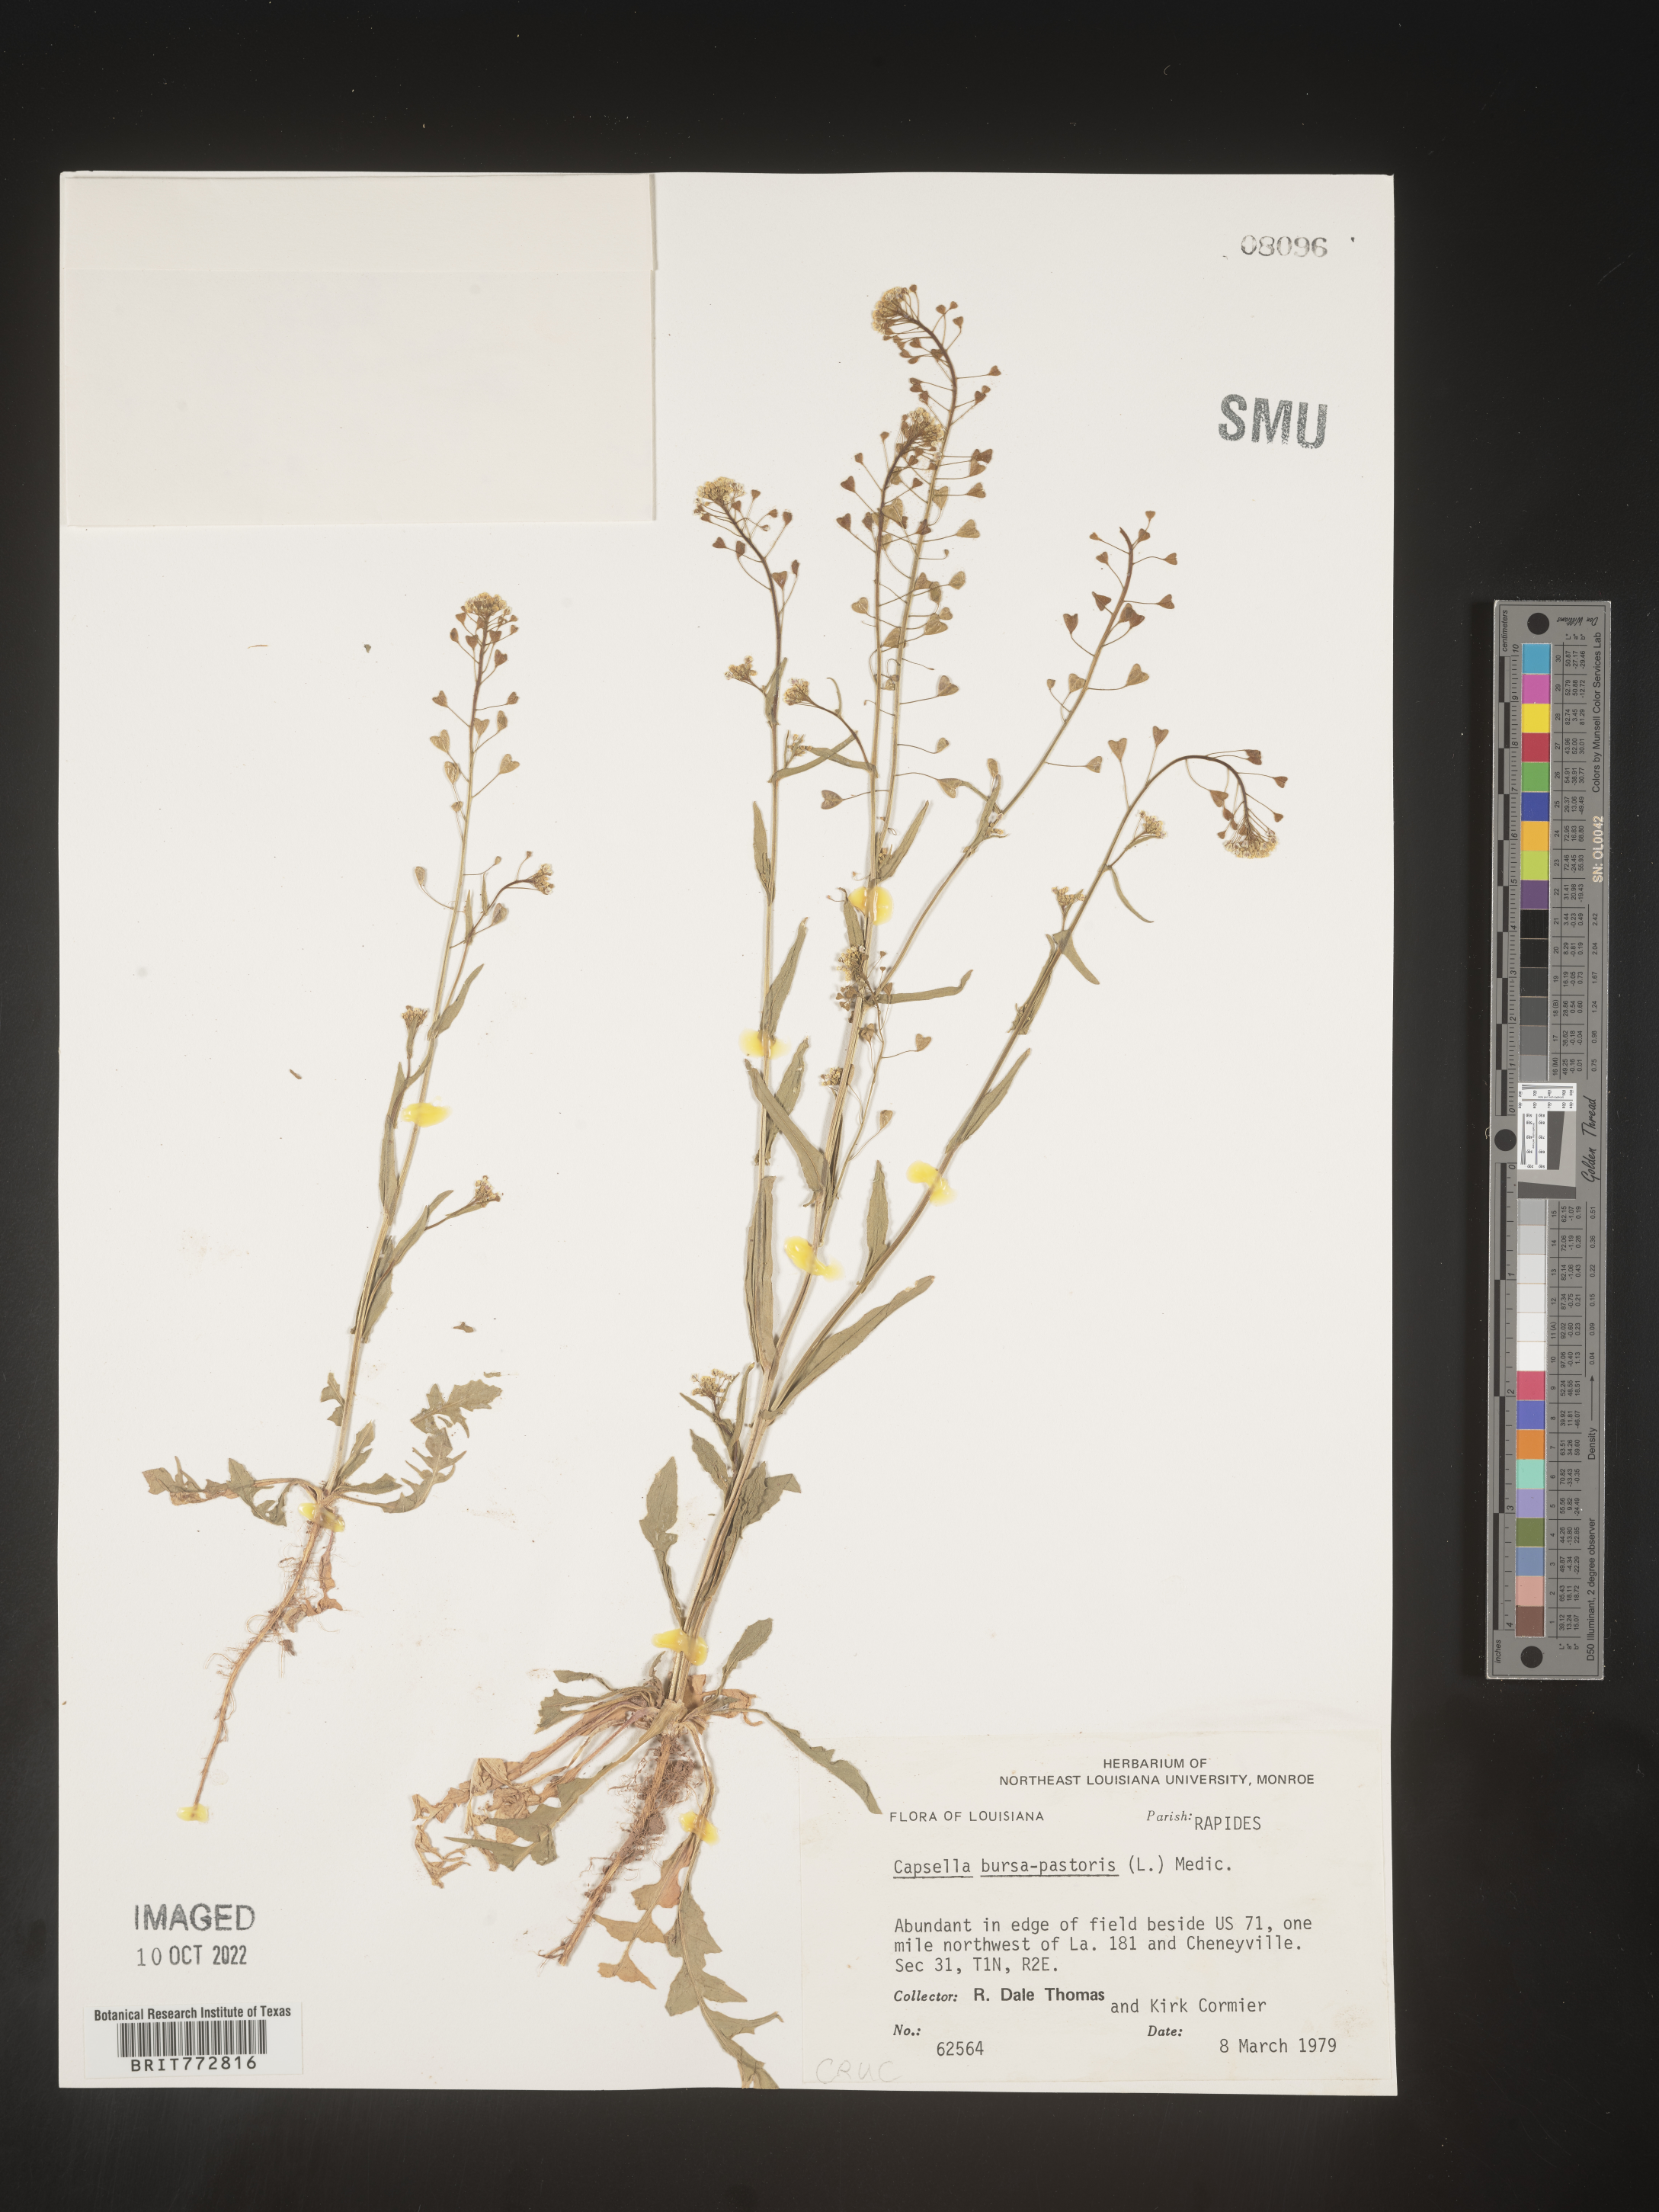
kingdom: Plantae
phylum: Tracheophyta
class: Magnoliopsida
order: Brassicales
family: Brassicaceae
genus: Capsella
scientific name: Capsella bursa-pastoris
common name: Shepherd's purse
